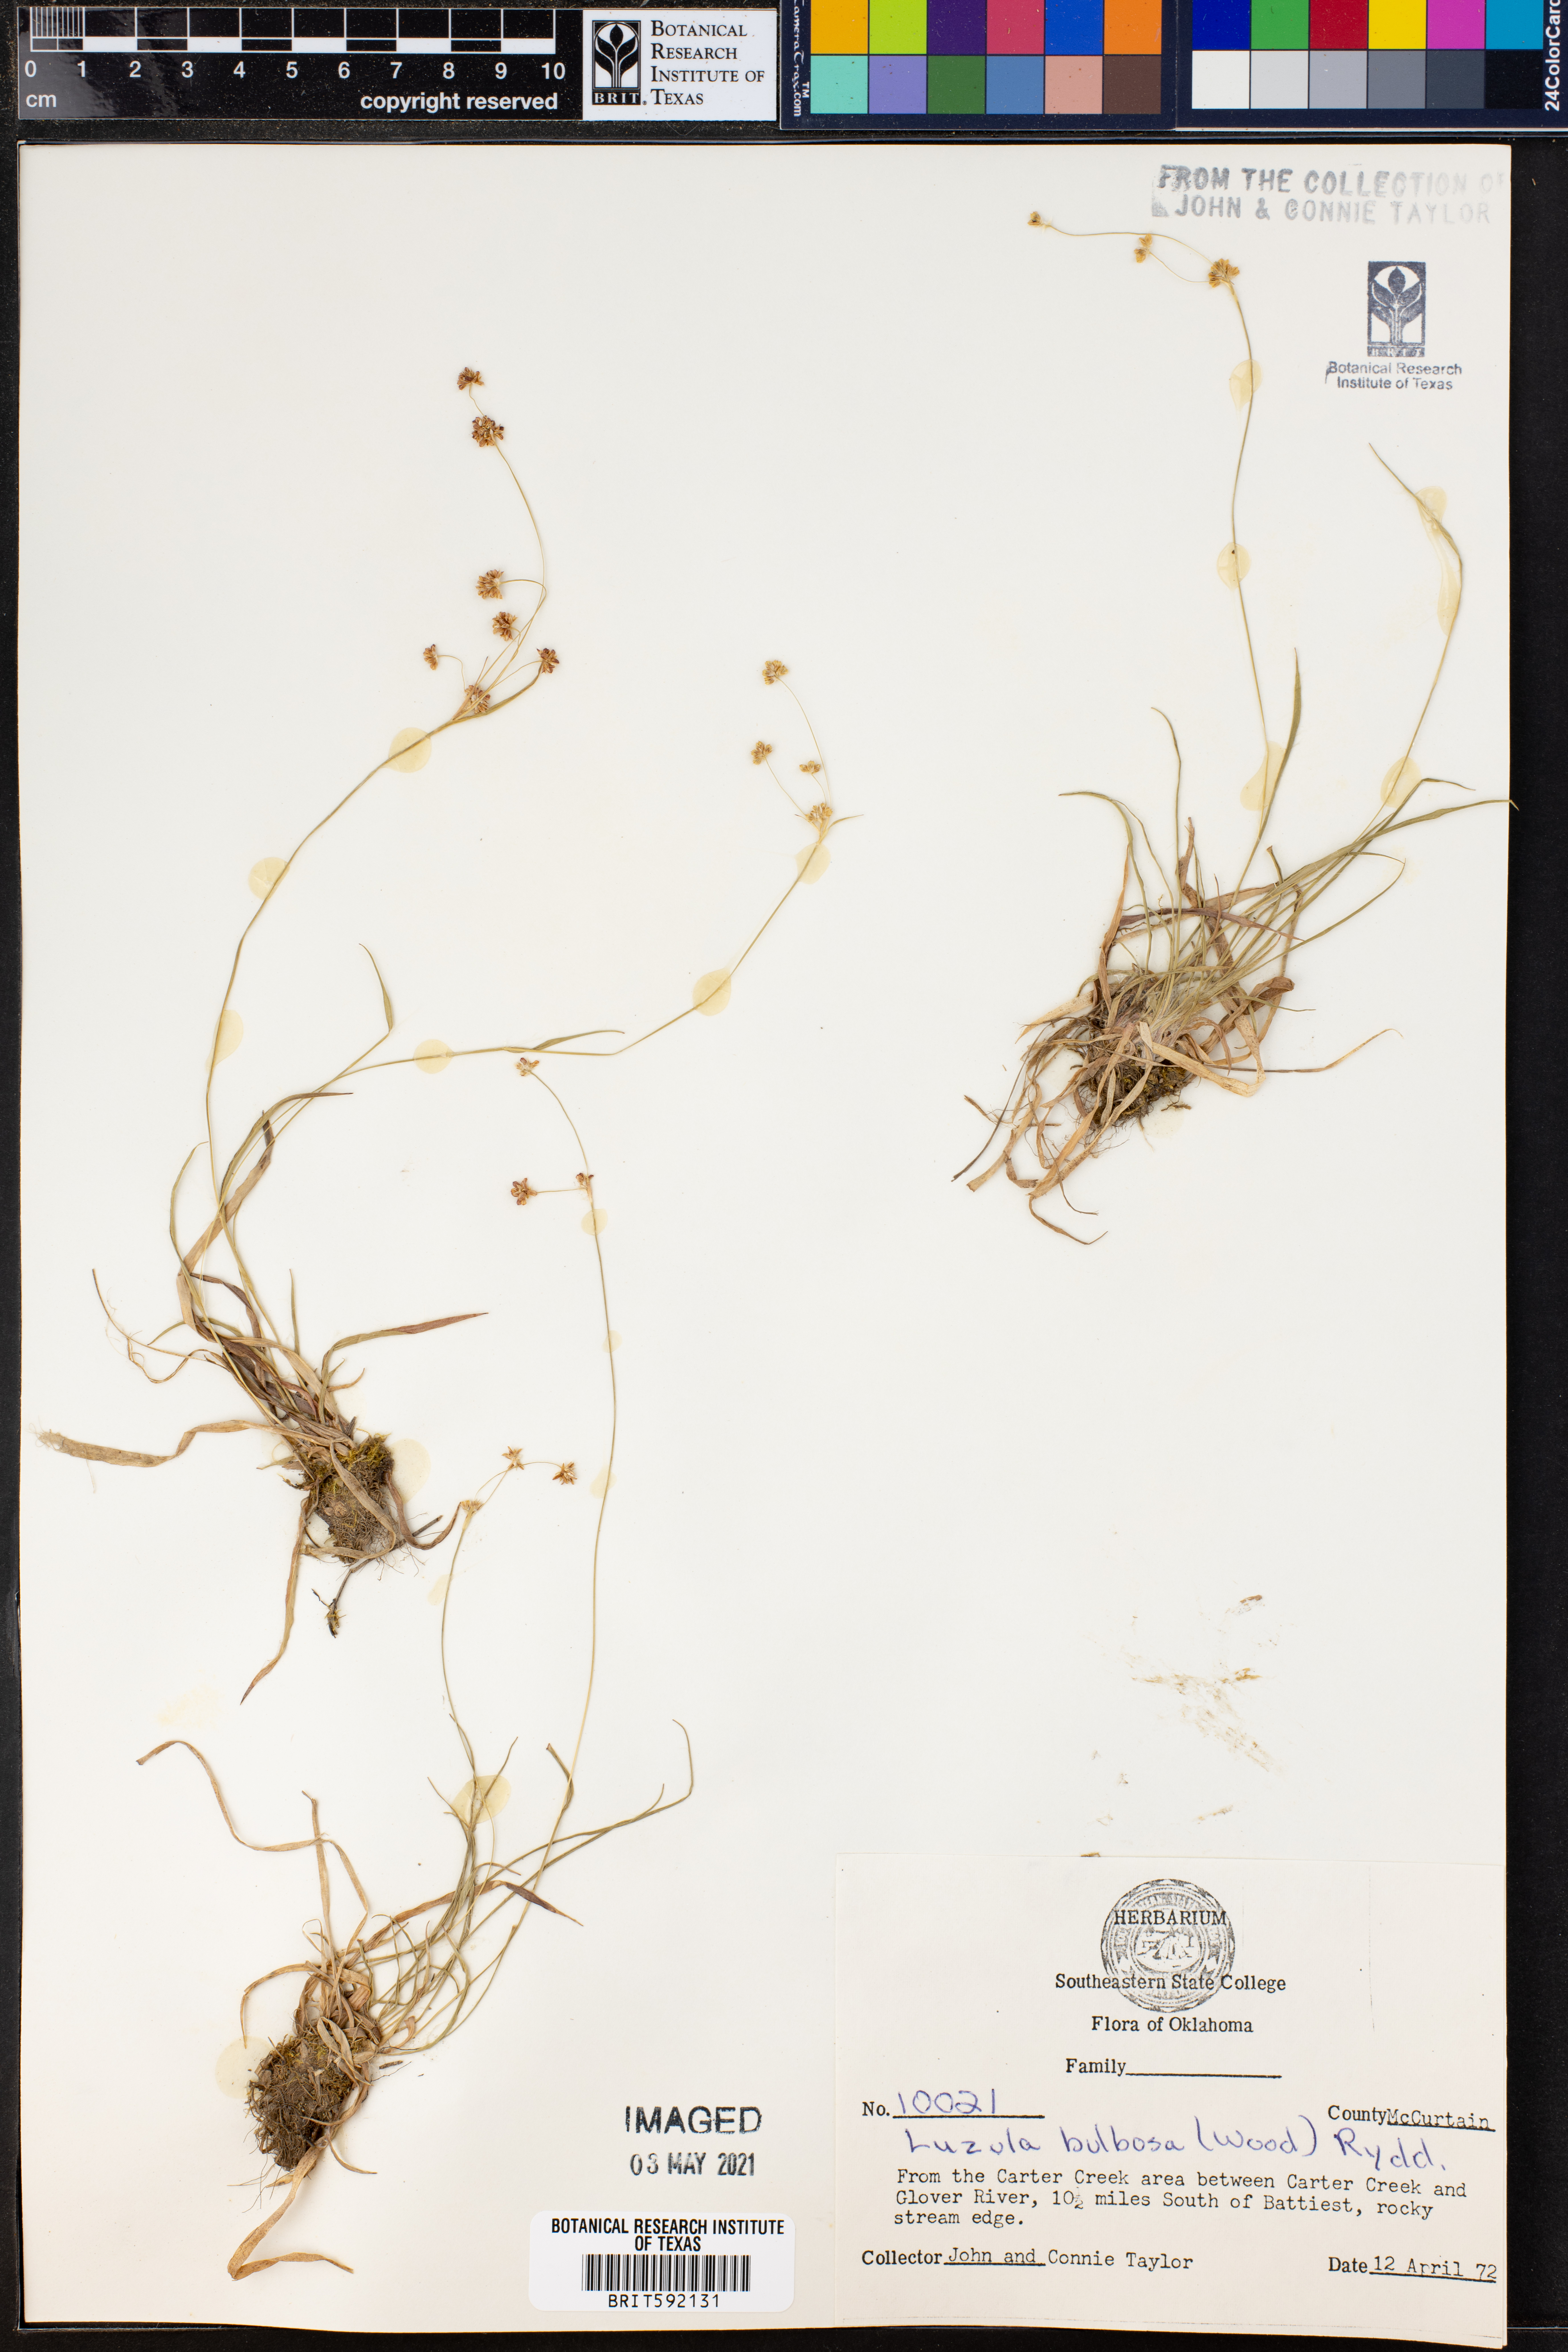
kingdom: Plantae
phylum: Tracheophyta
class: Liliopsida
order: Poales
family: Juncaceae
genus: Luzula
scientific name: Luzula bulbosa
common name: Bulbous woodrush
